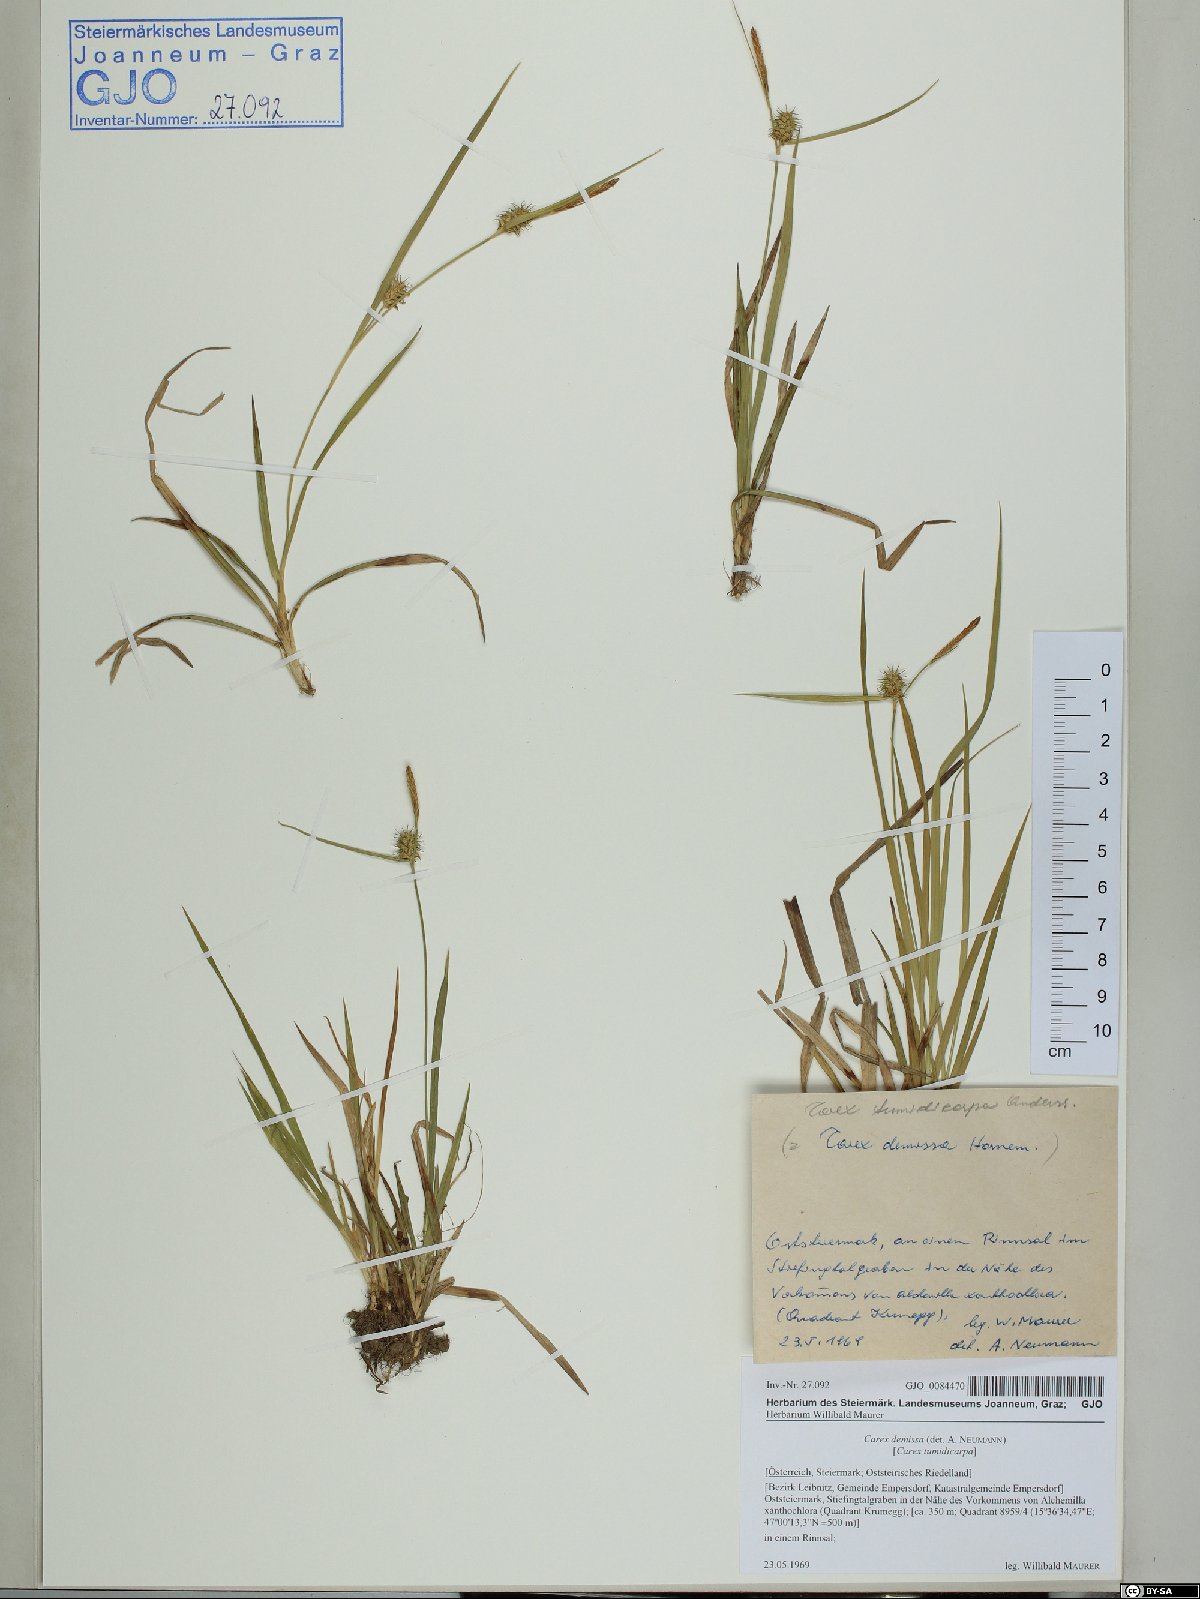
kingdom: Plantae
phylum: Tracheophyta
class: Liliopsida
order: Poales
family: Cyperaceae
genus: Carex
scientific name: Carex demissa
